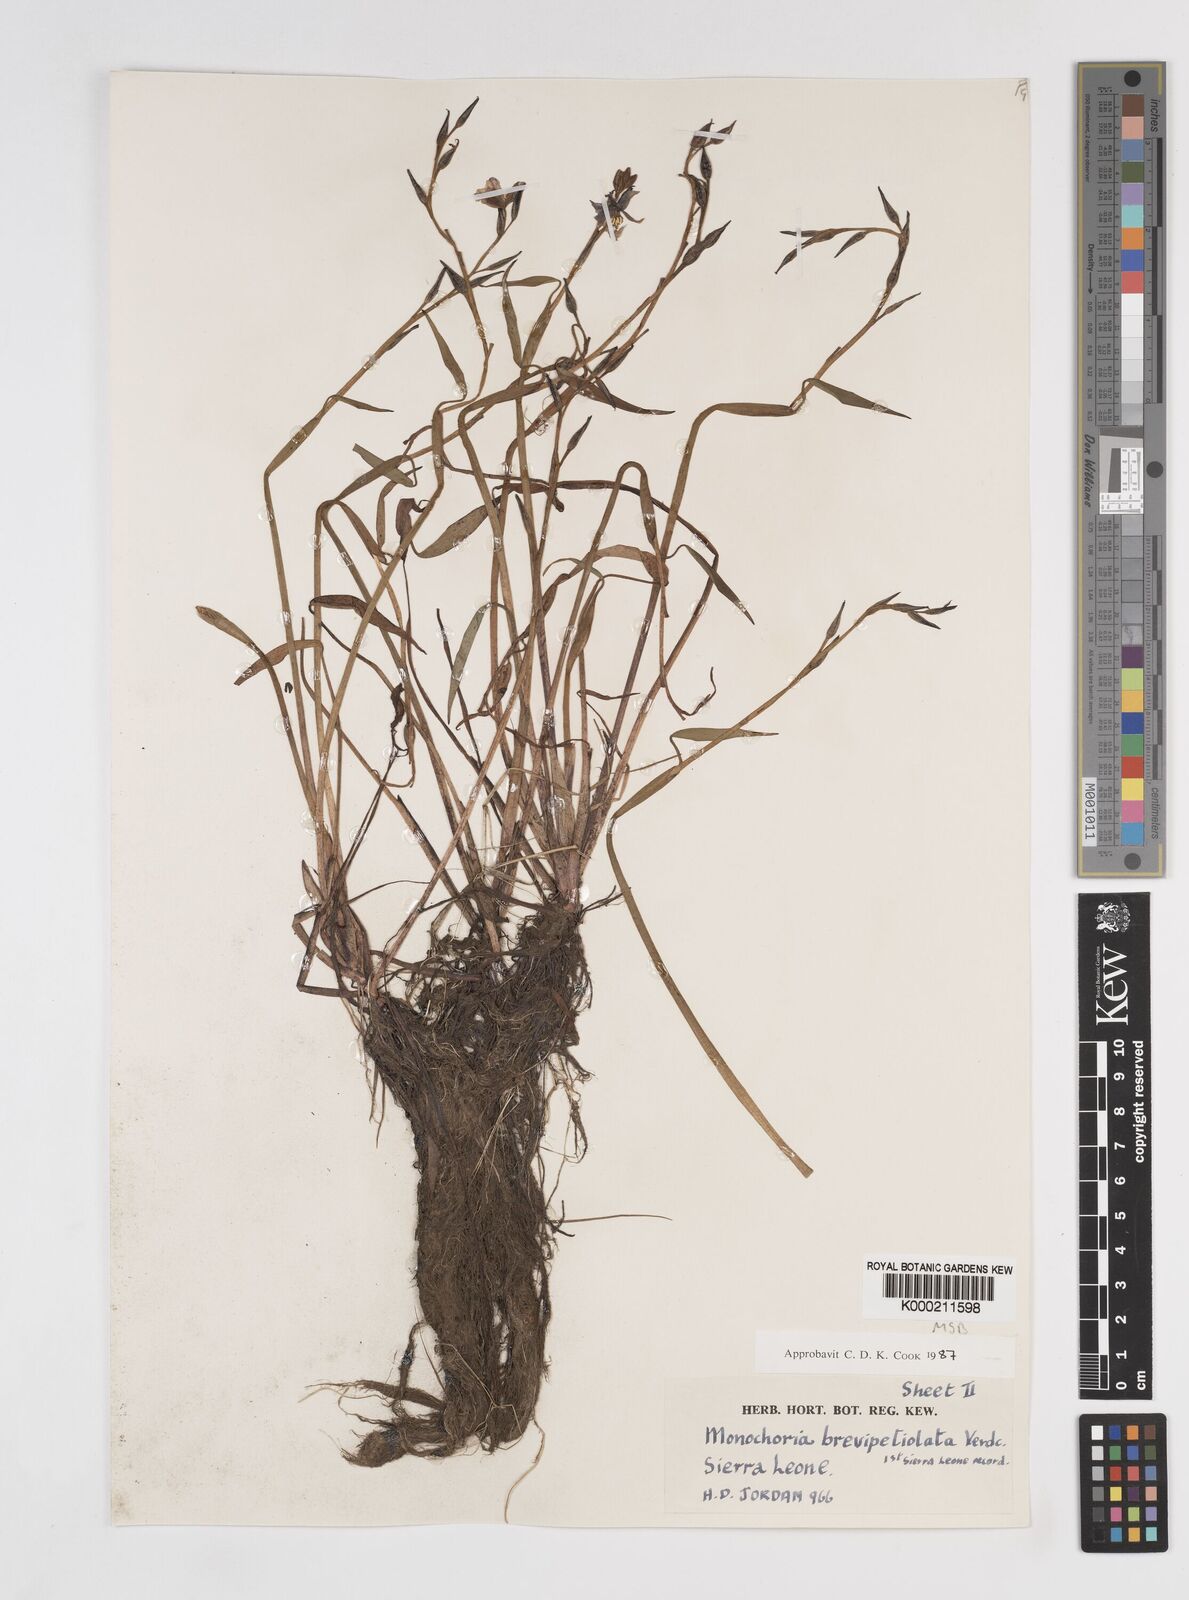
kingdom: Plantae
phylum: Tracheophyta
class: Liliopsida
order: Commelinales
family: Pontederiaceae
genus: Pontederia
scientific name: Pontederia brevipetiolata
